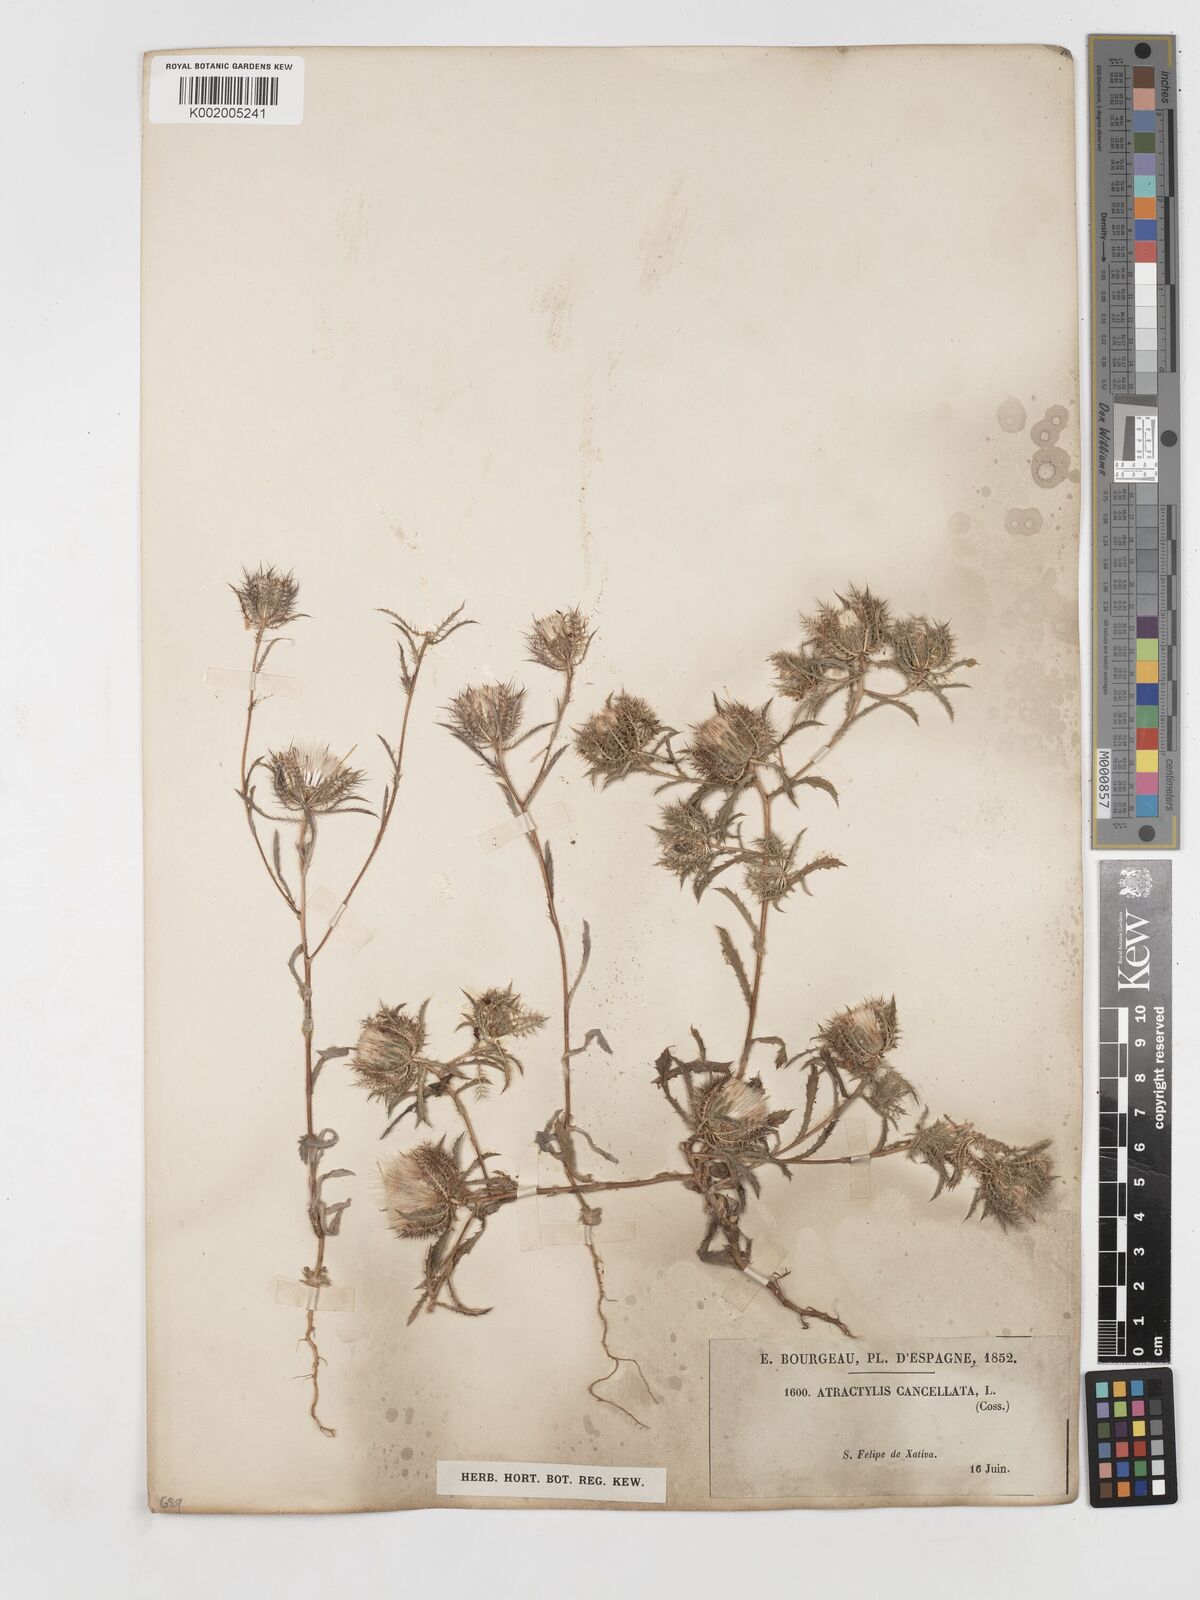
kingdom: Plantae
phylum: Tracheophyta
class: Magnoliopsida
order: Asterales
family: Asteraceae
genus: Atractylis
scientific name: Atractylis cancellata
